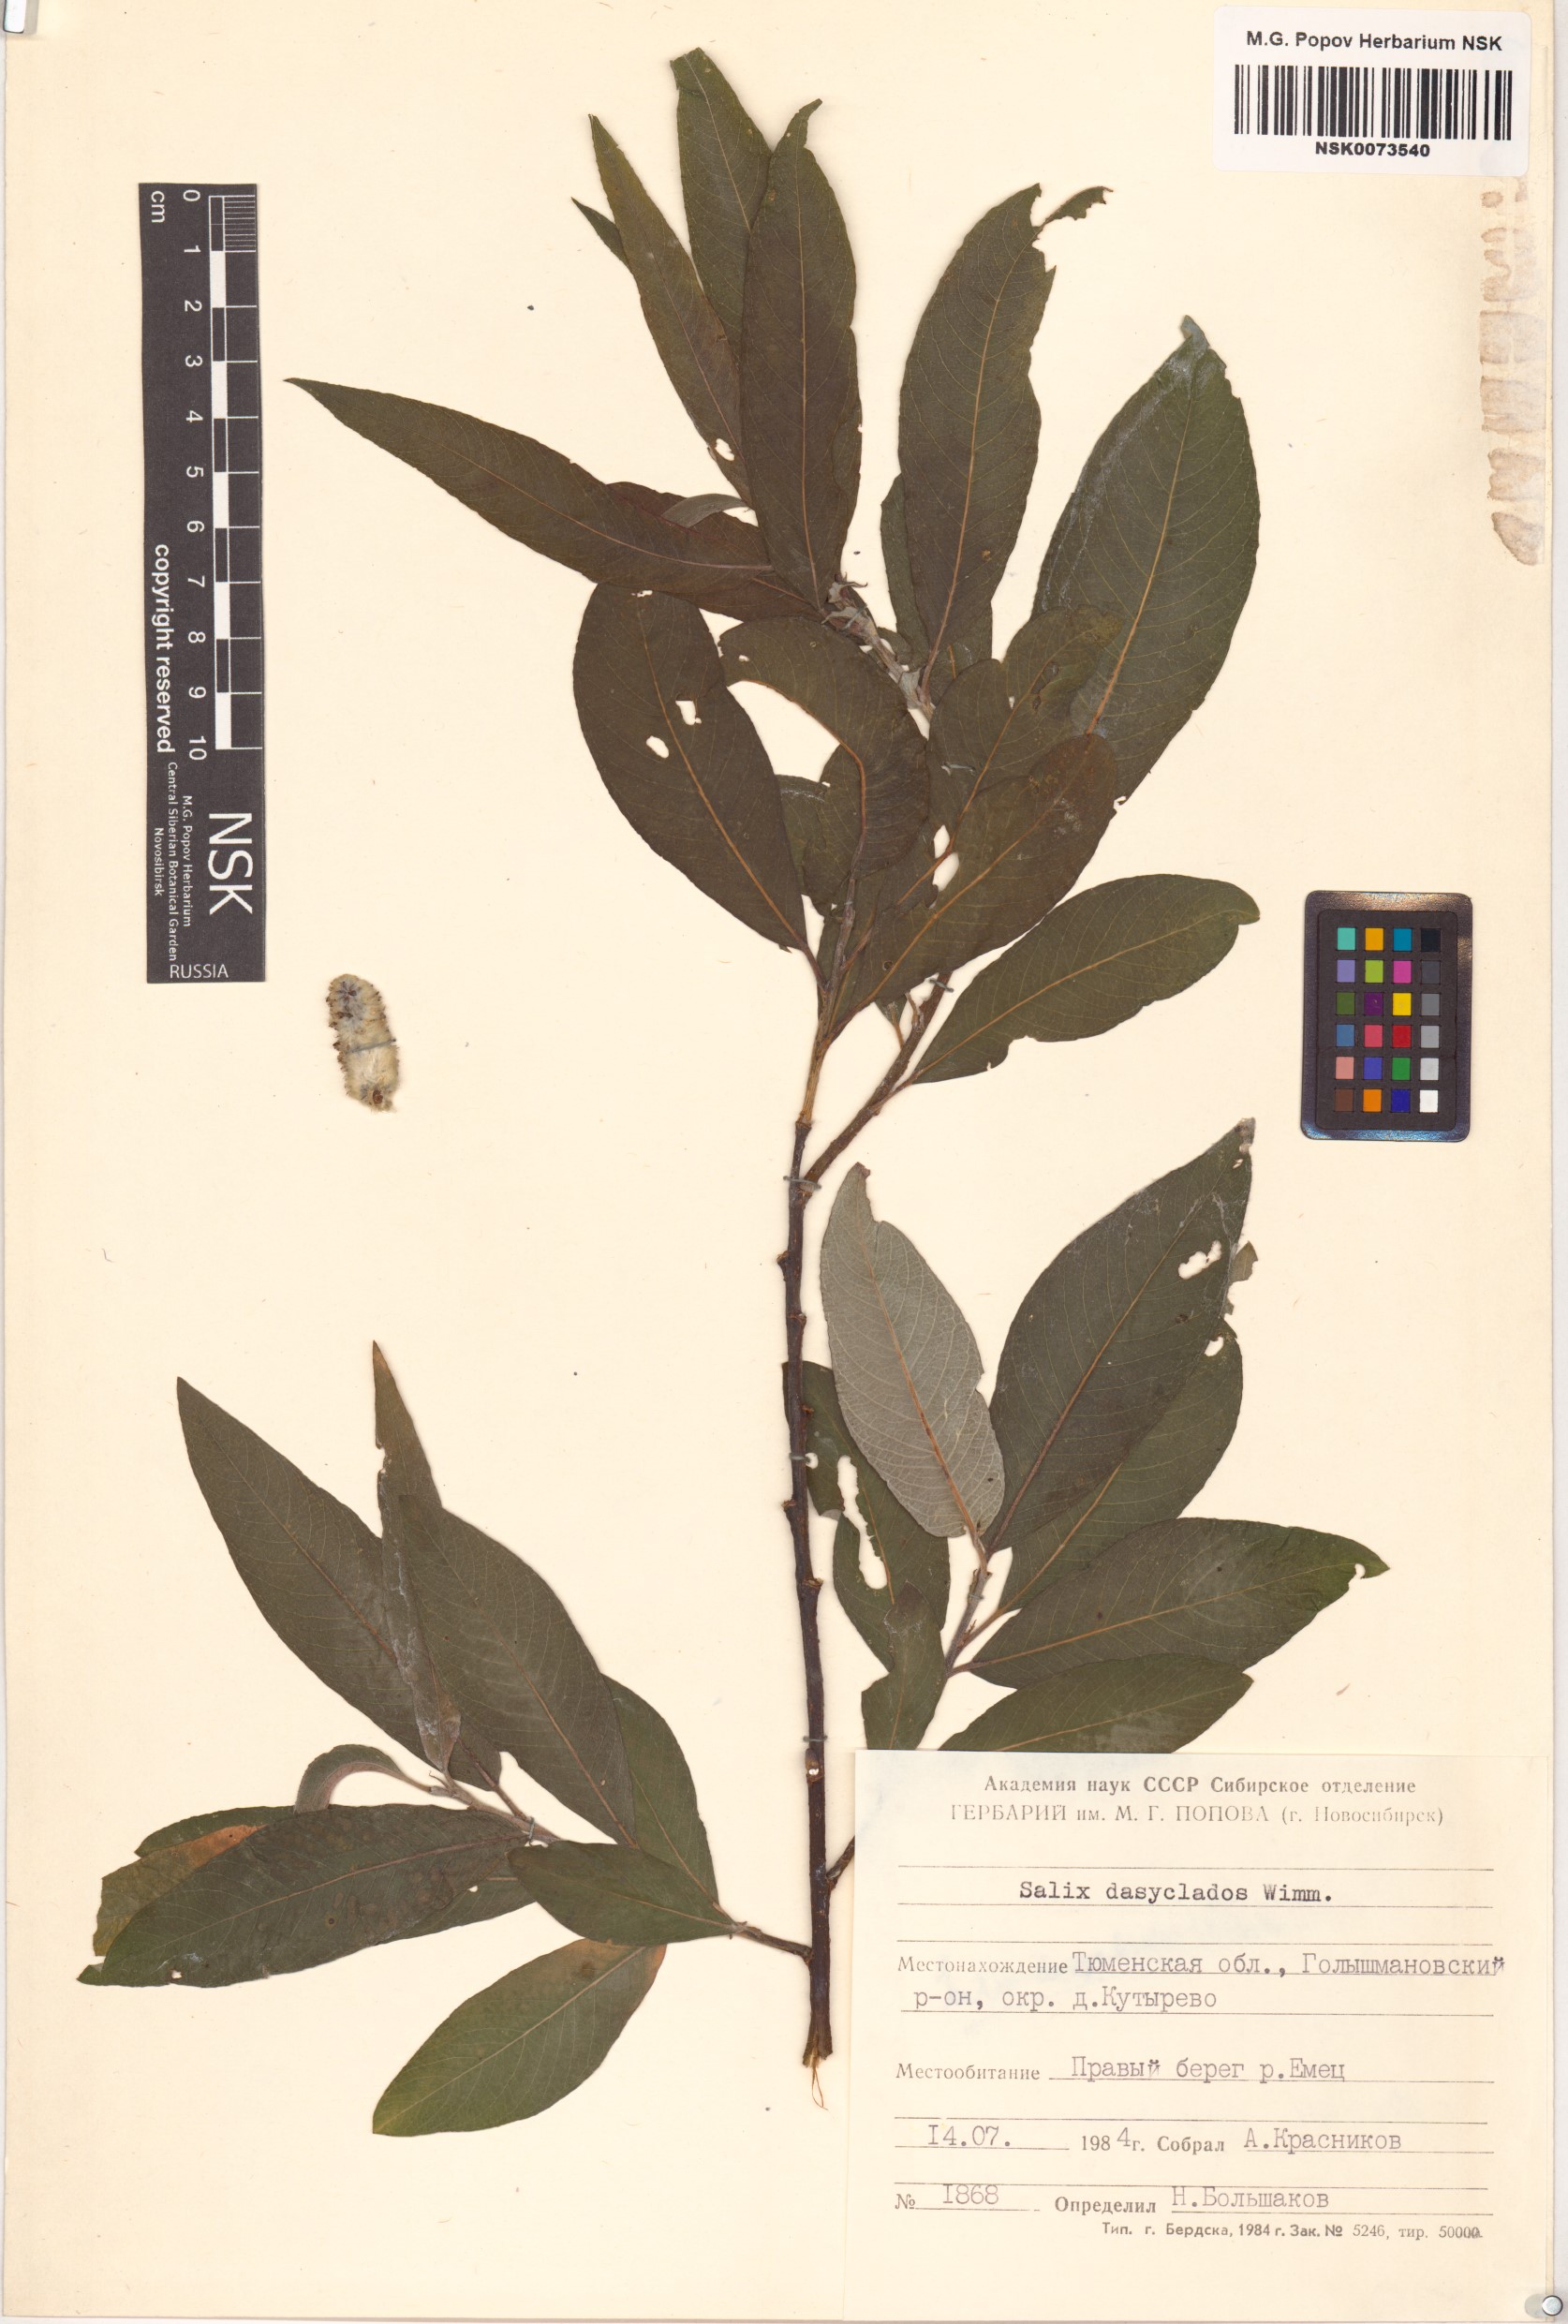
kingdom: Plantae
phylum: Tracheophyta
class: Magnoliopsida
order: Malpighiales
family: Salicaceae
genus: Salix
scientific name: Salix gmelinii
